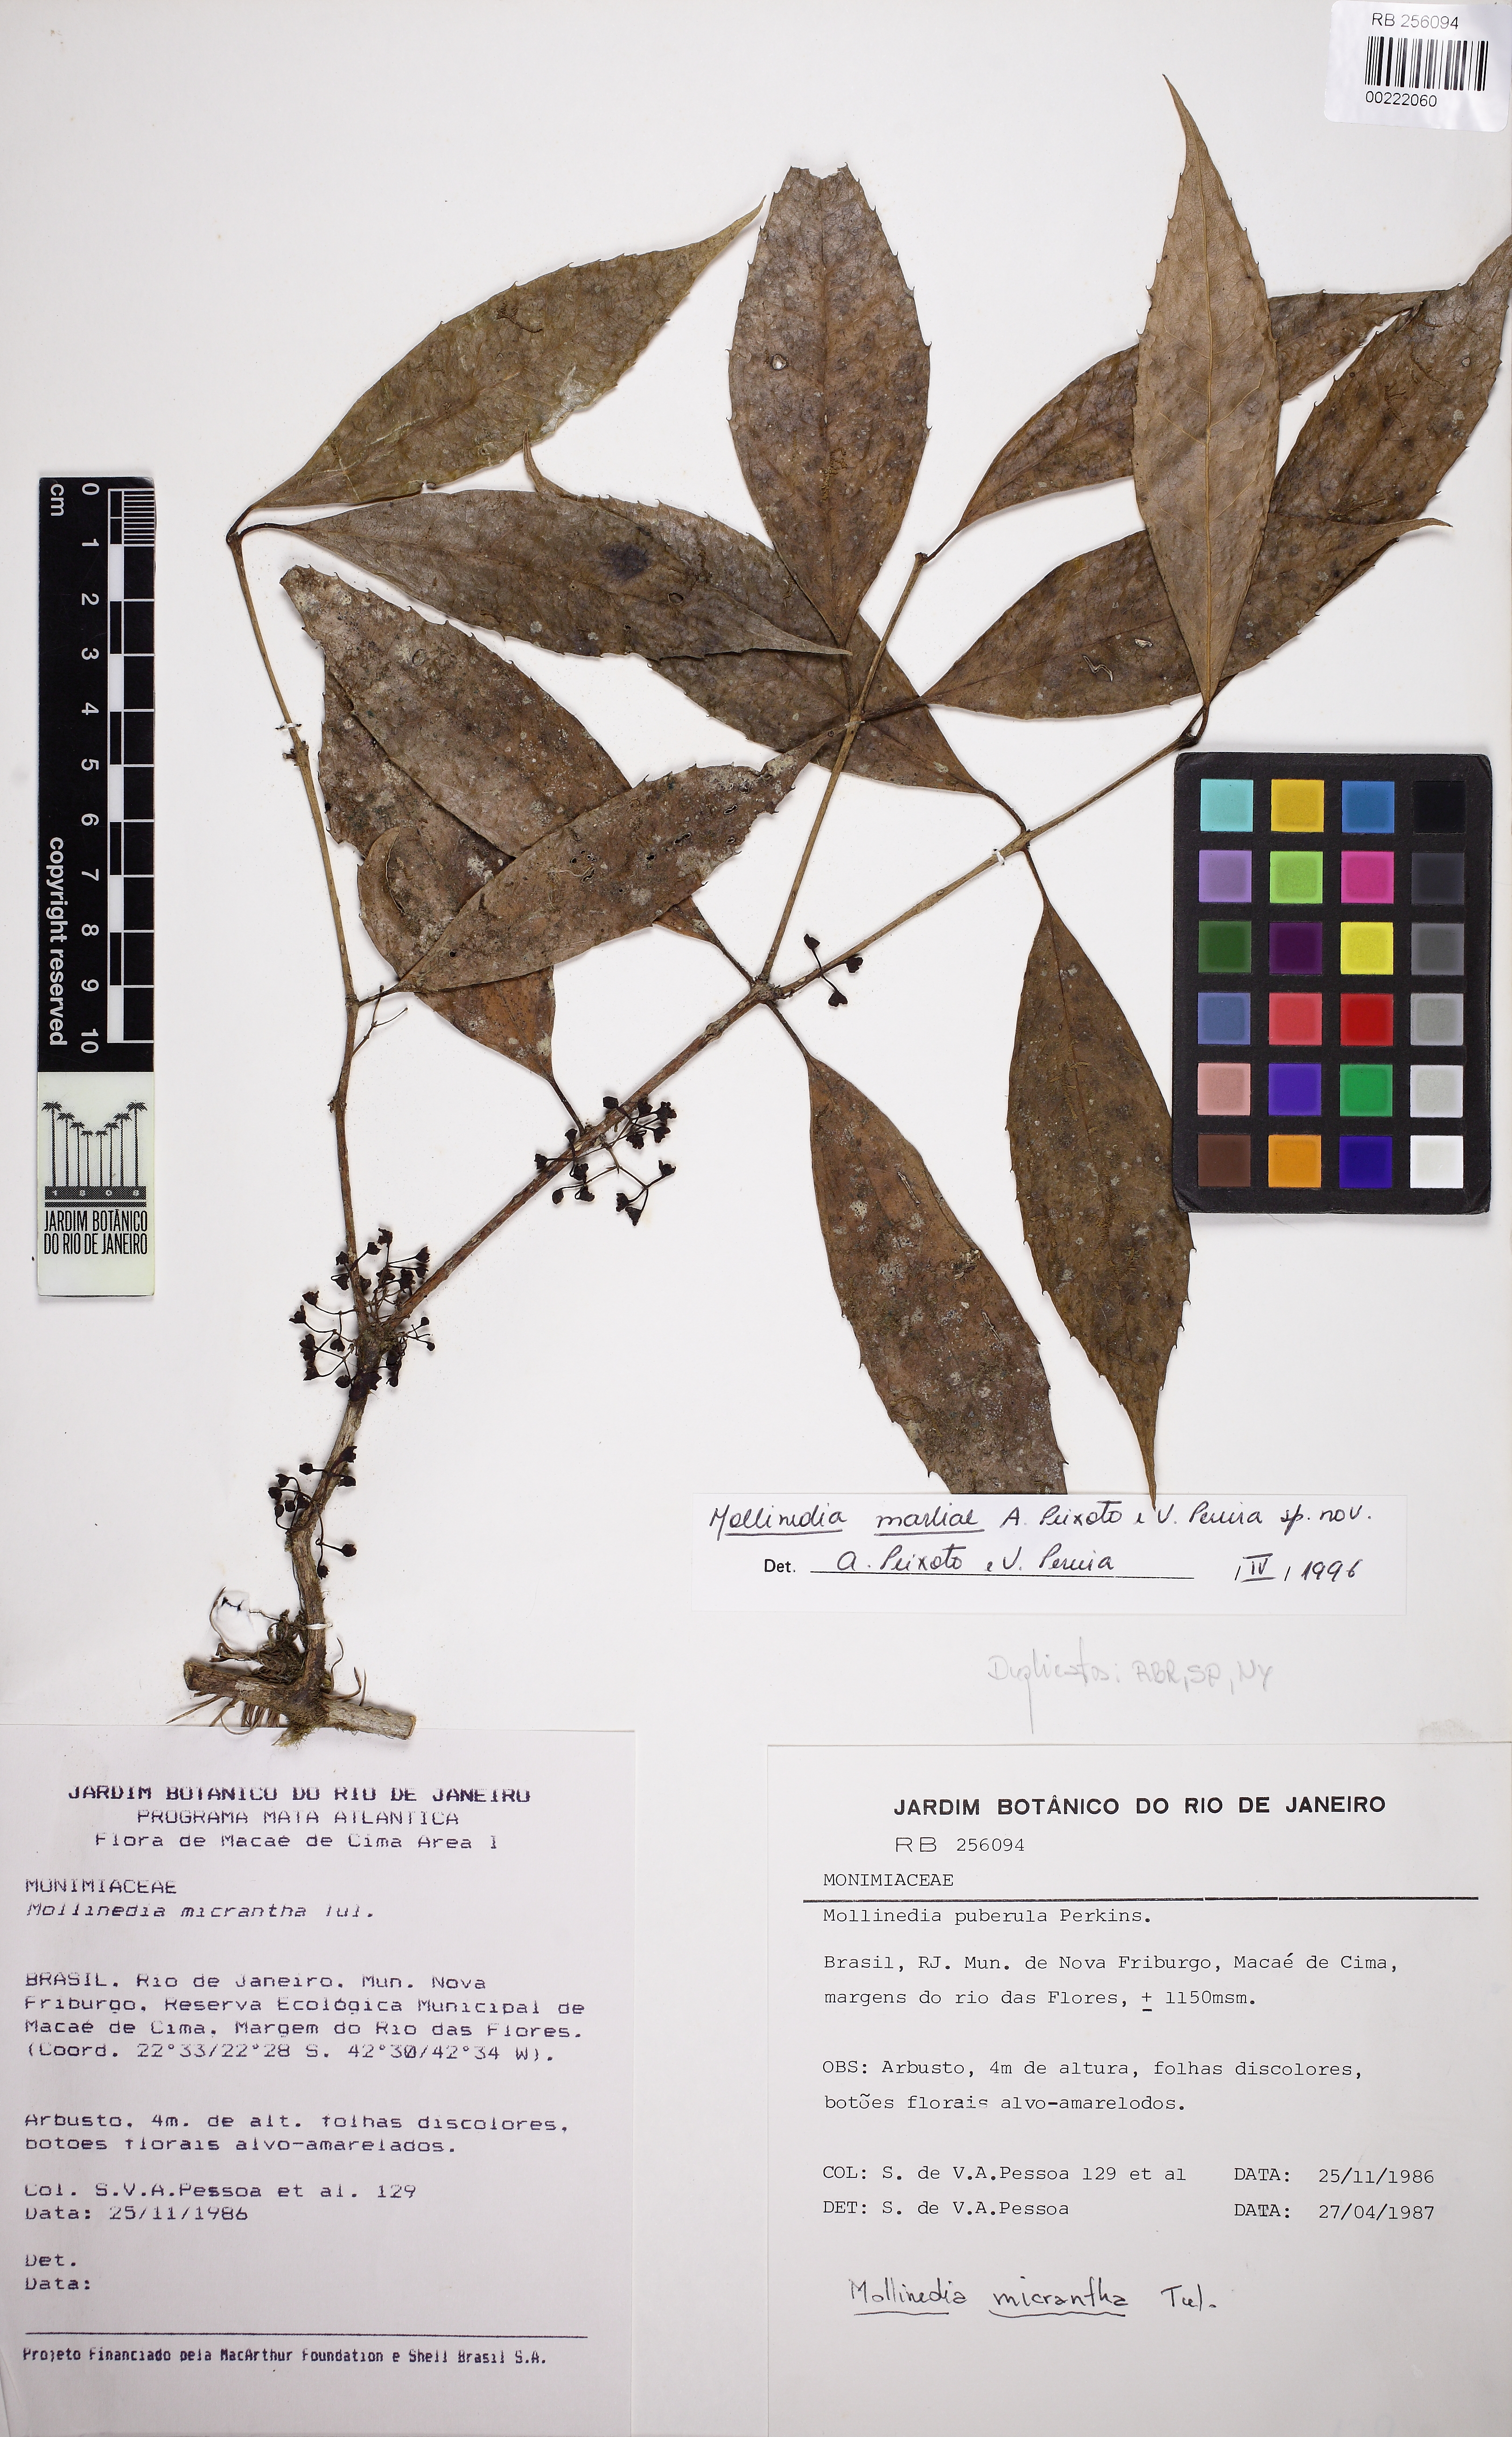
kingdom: Plantae
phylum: Tracheophyta
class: Magnoliopsida
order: Laurales
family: Monimiaceae
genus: Mollinedia
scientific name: Mollinedia marliae
